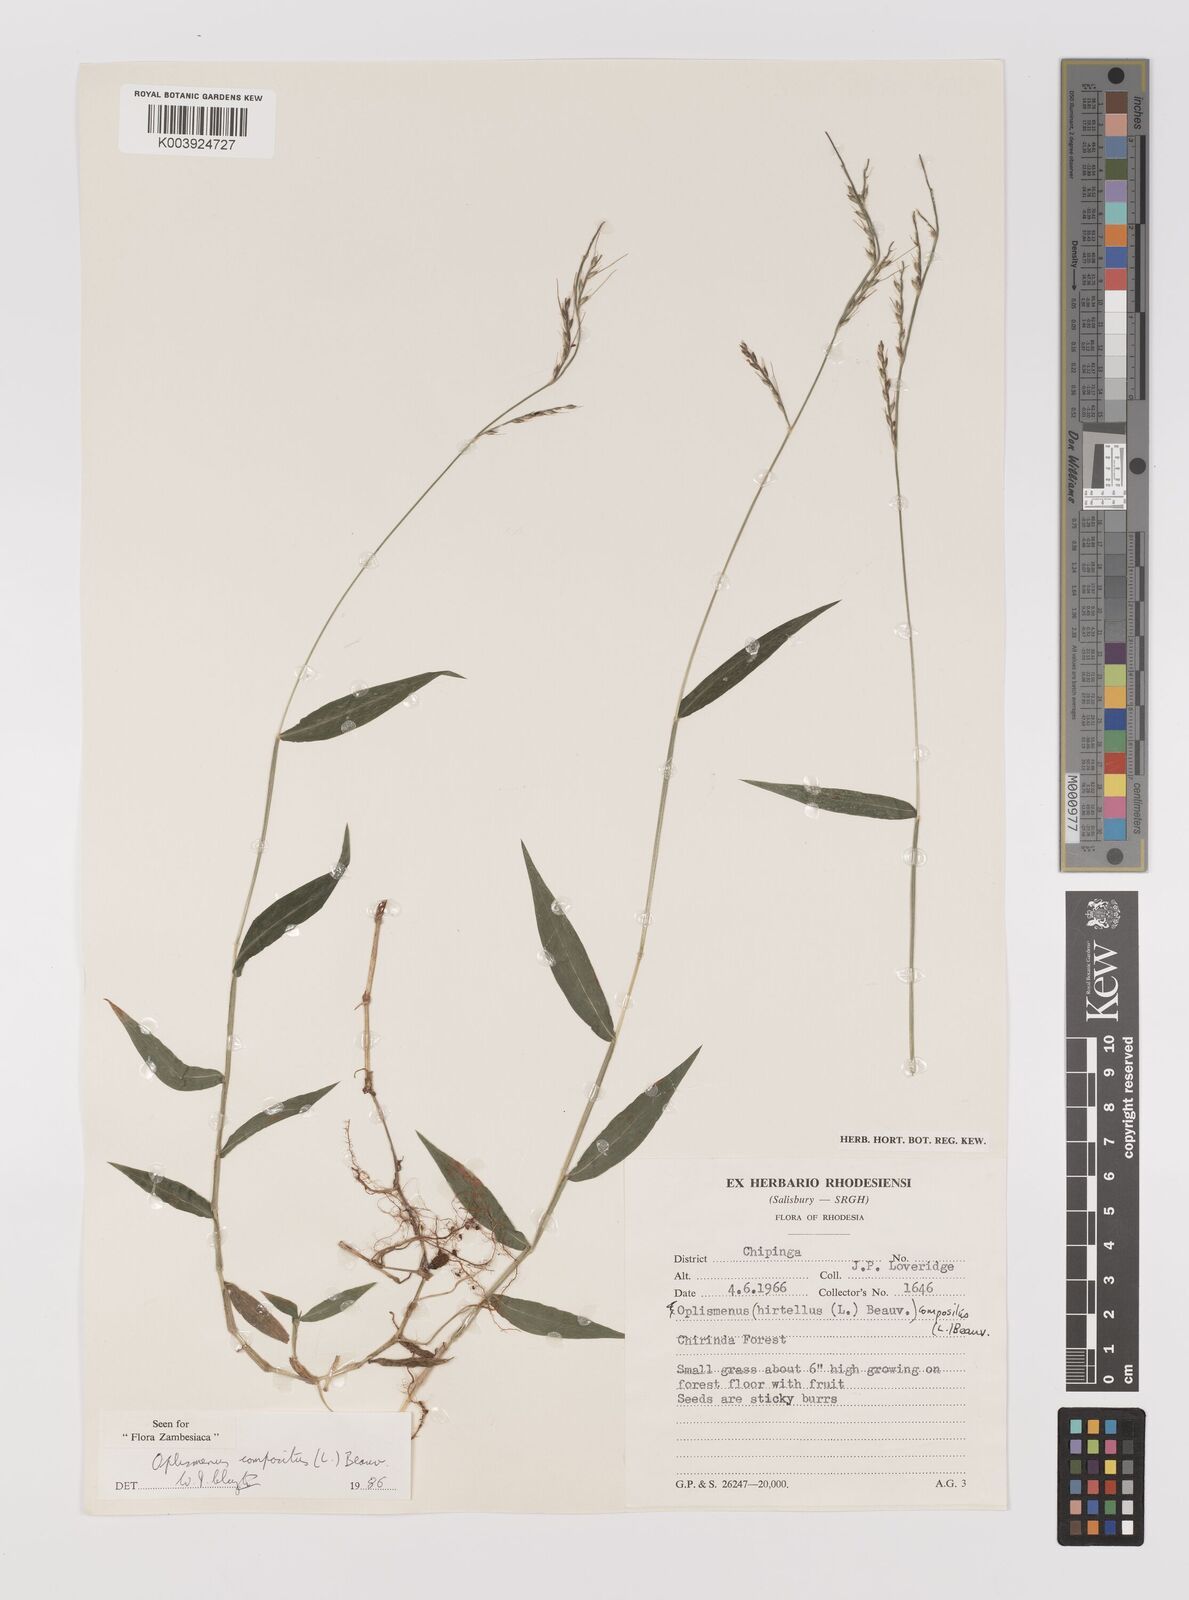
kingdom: Plantae
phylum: Tracheophyta
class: Liliopsida
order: Poales
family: Poaceae
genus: Oplismenus
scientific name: Oplismenus compositus
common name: Running mountain grass
